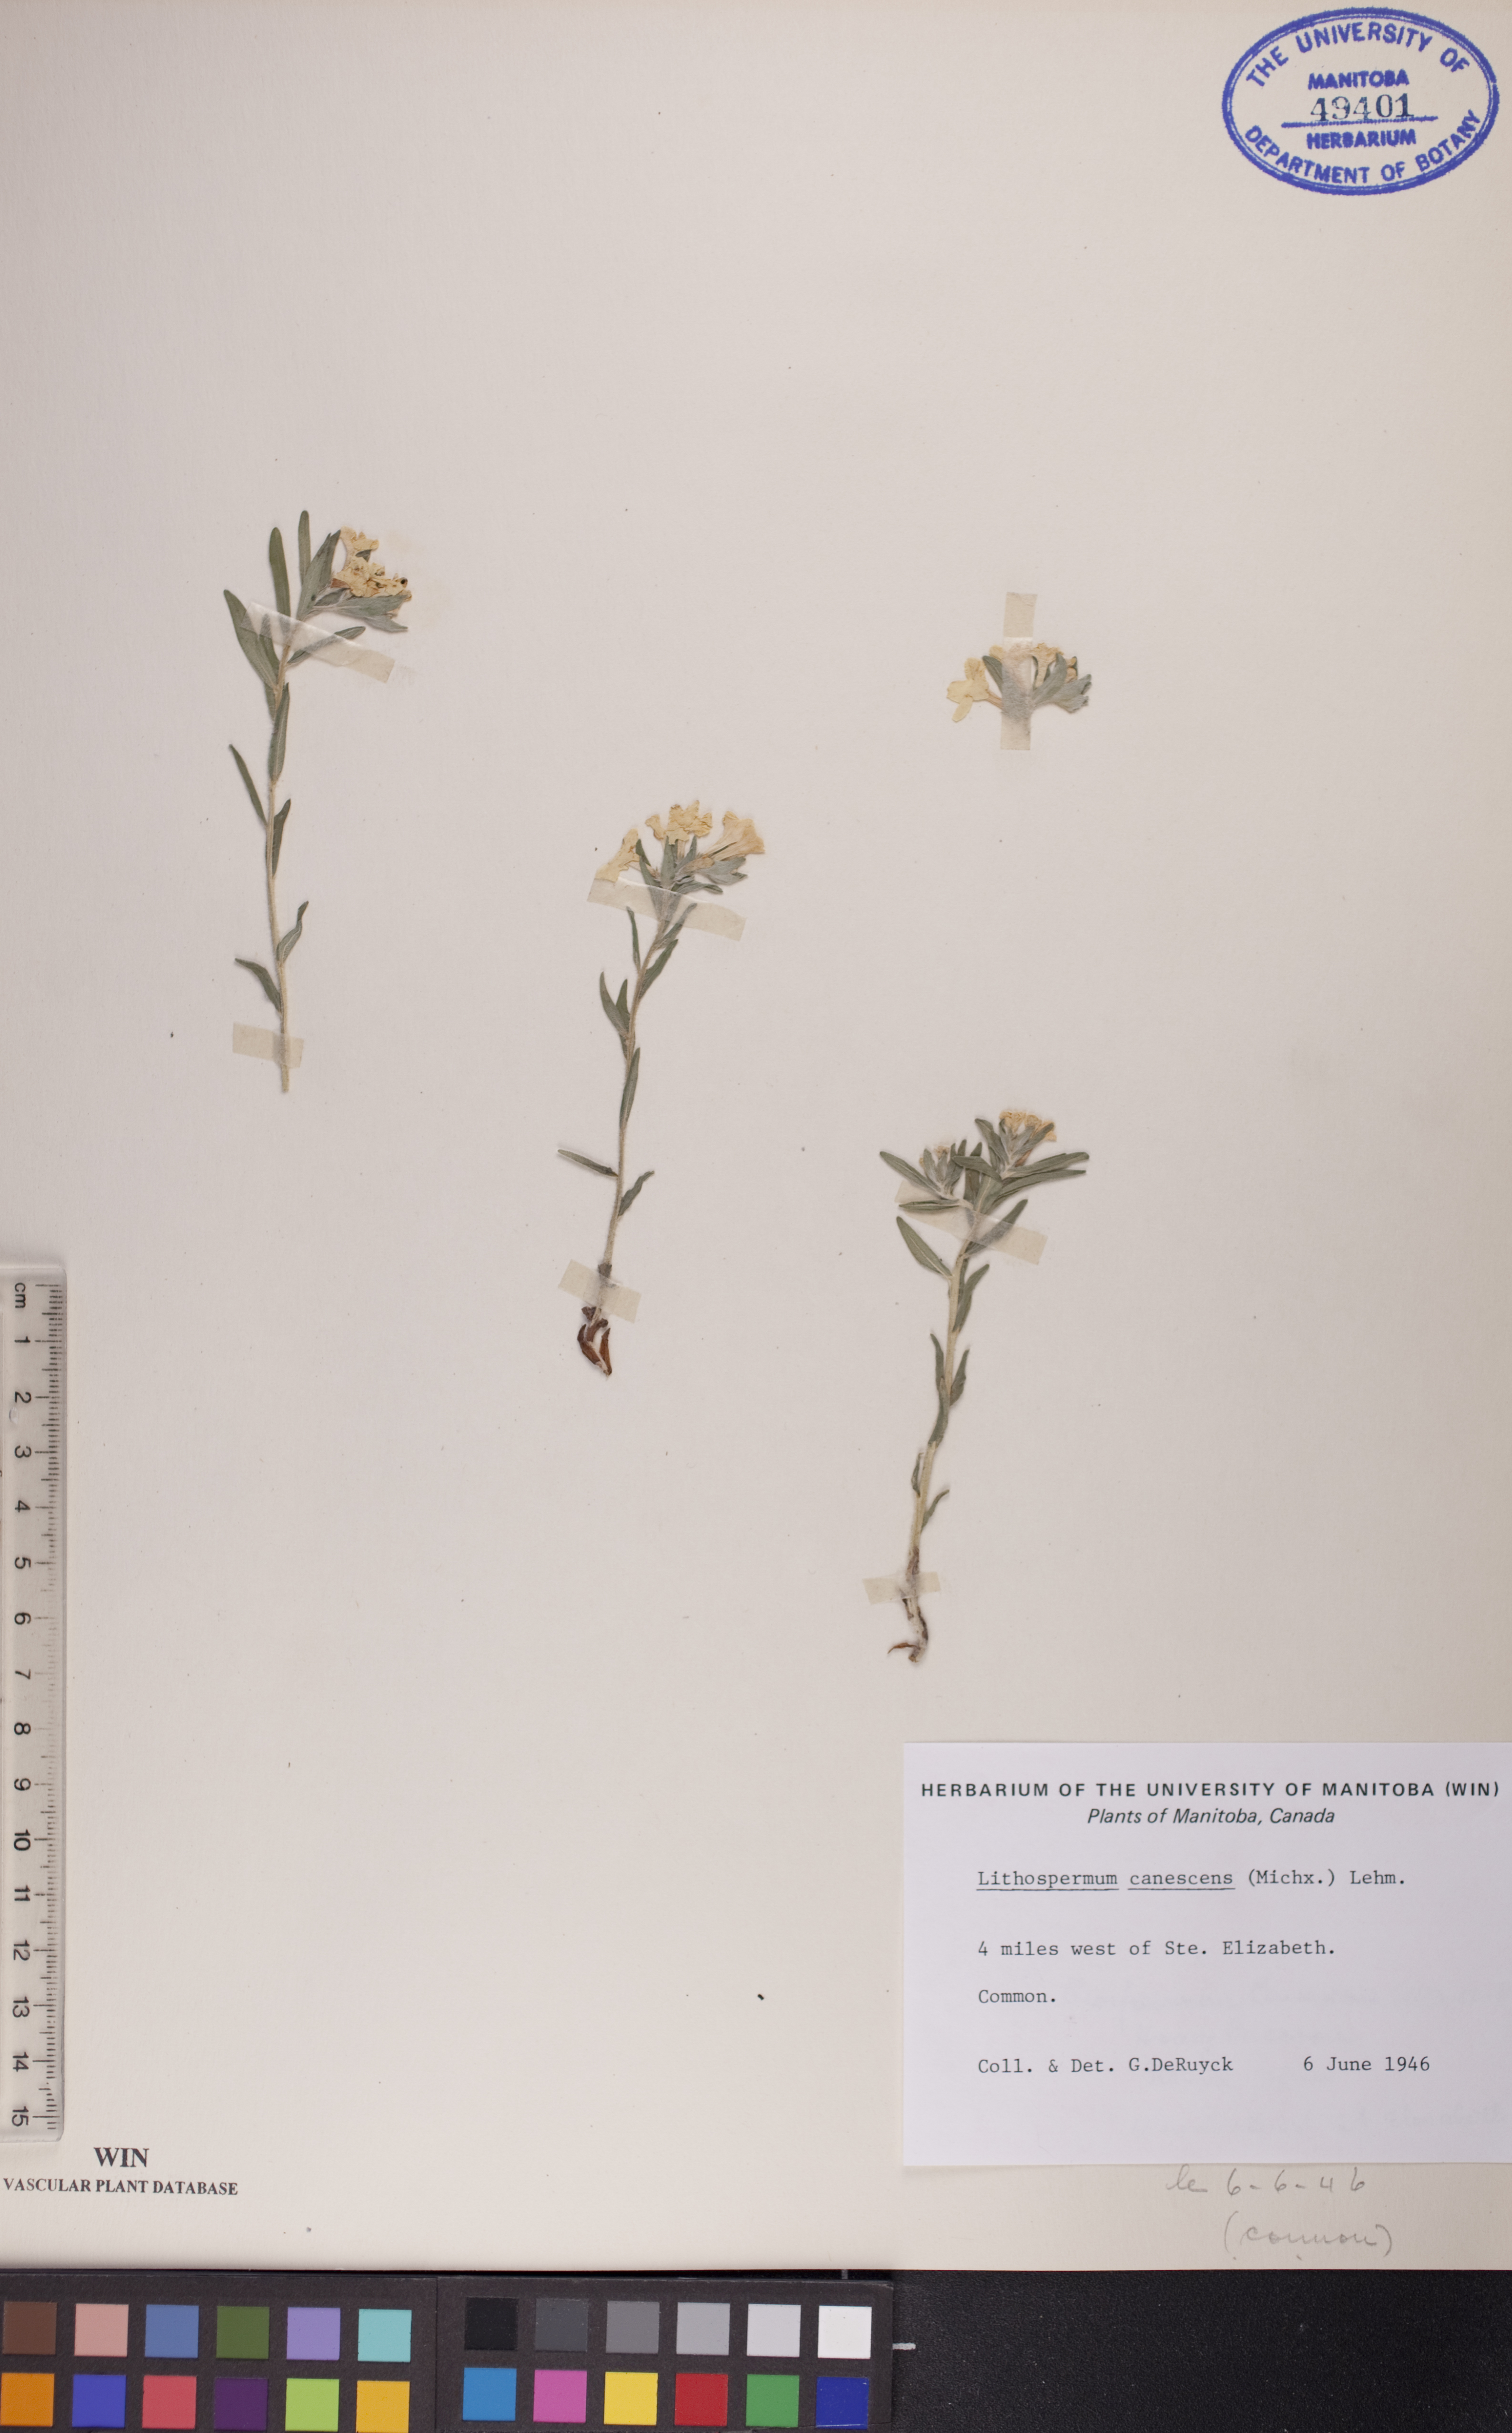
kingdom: Plantae
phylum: Tracheophyta
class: Magnoliopsida
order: Boraginales
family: Boraginaceae
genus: Lithospermum
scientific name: Lithospermum canescens
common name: Hoary puccoon
